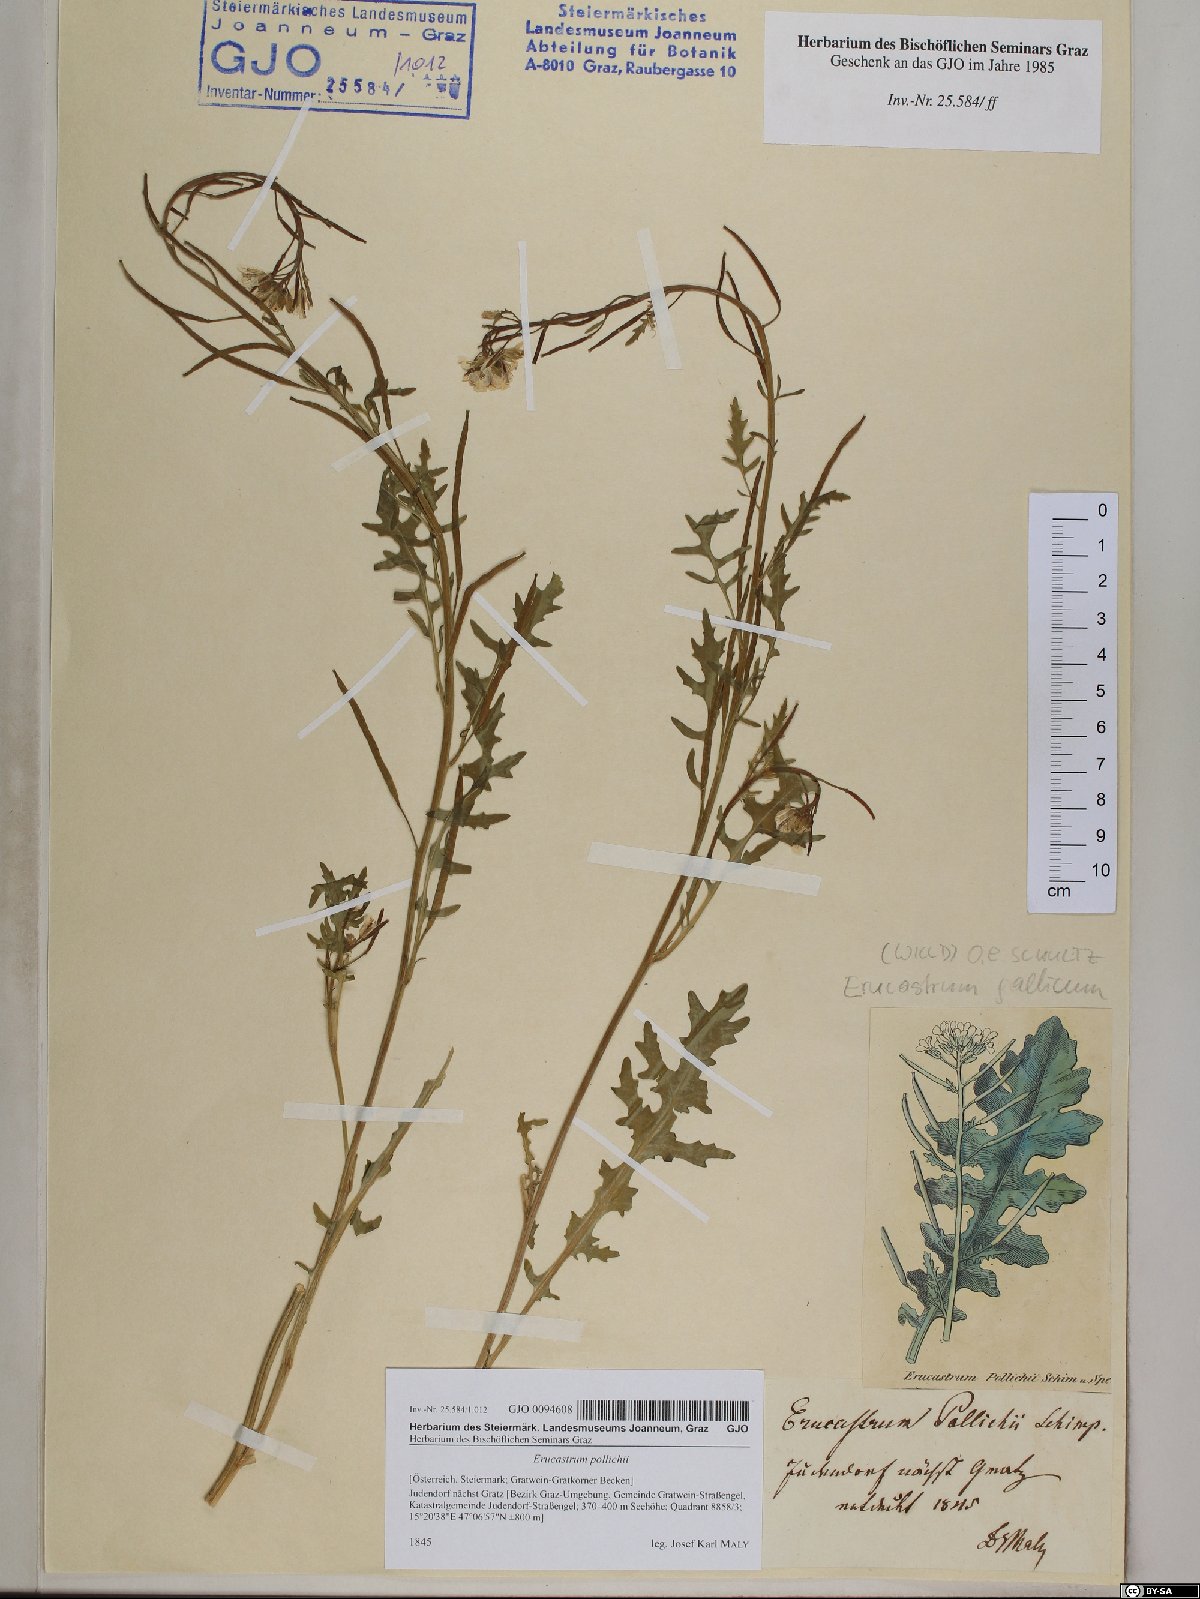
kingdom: Plantae
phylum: Tracheophyta
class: Magnoliopsida
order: Brassicales
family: Brassicaceae
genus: Erucastrum
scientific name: Erucastrum gallicum
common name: Hairy rocket
